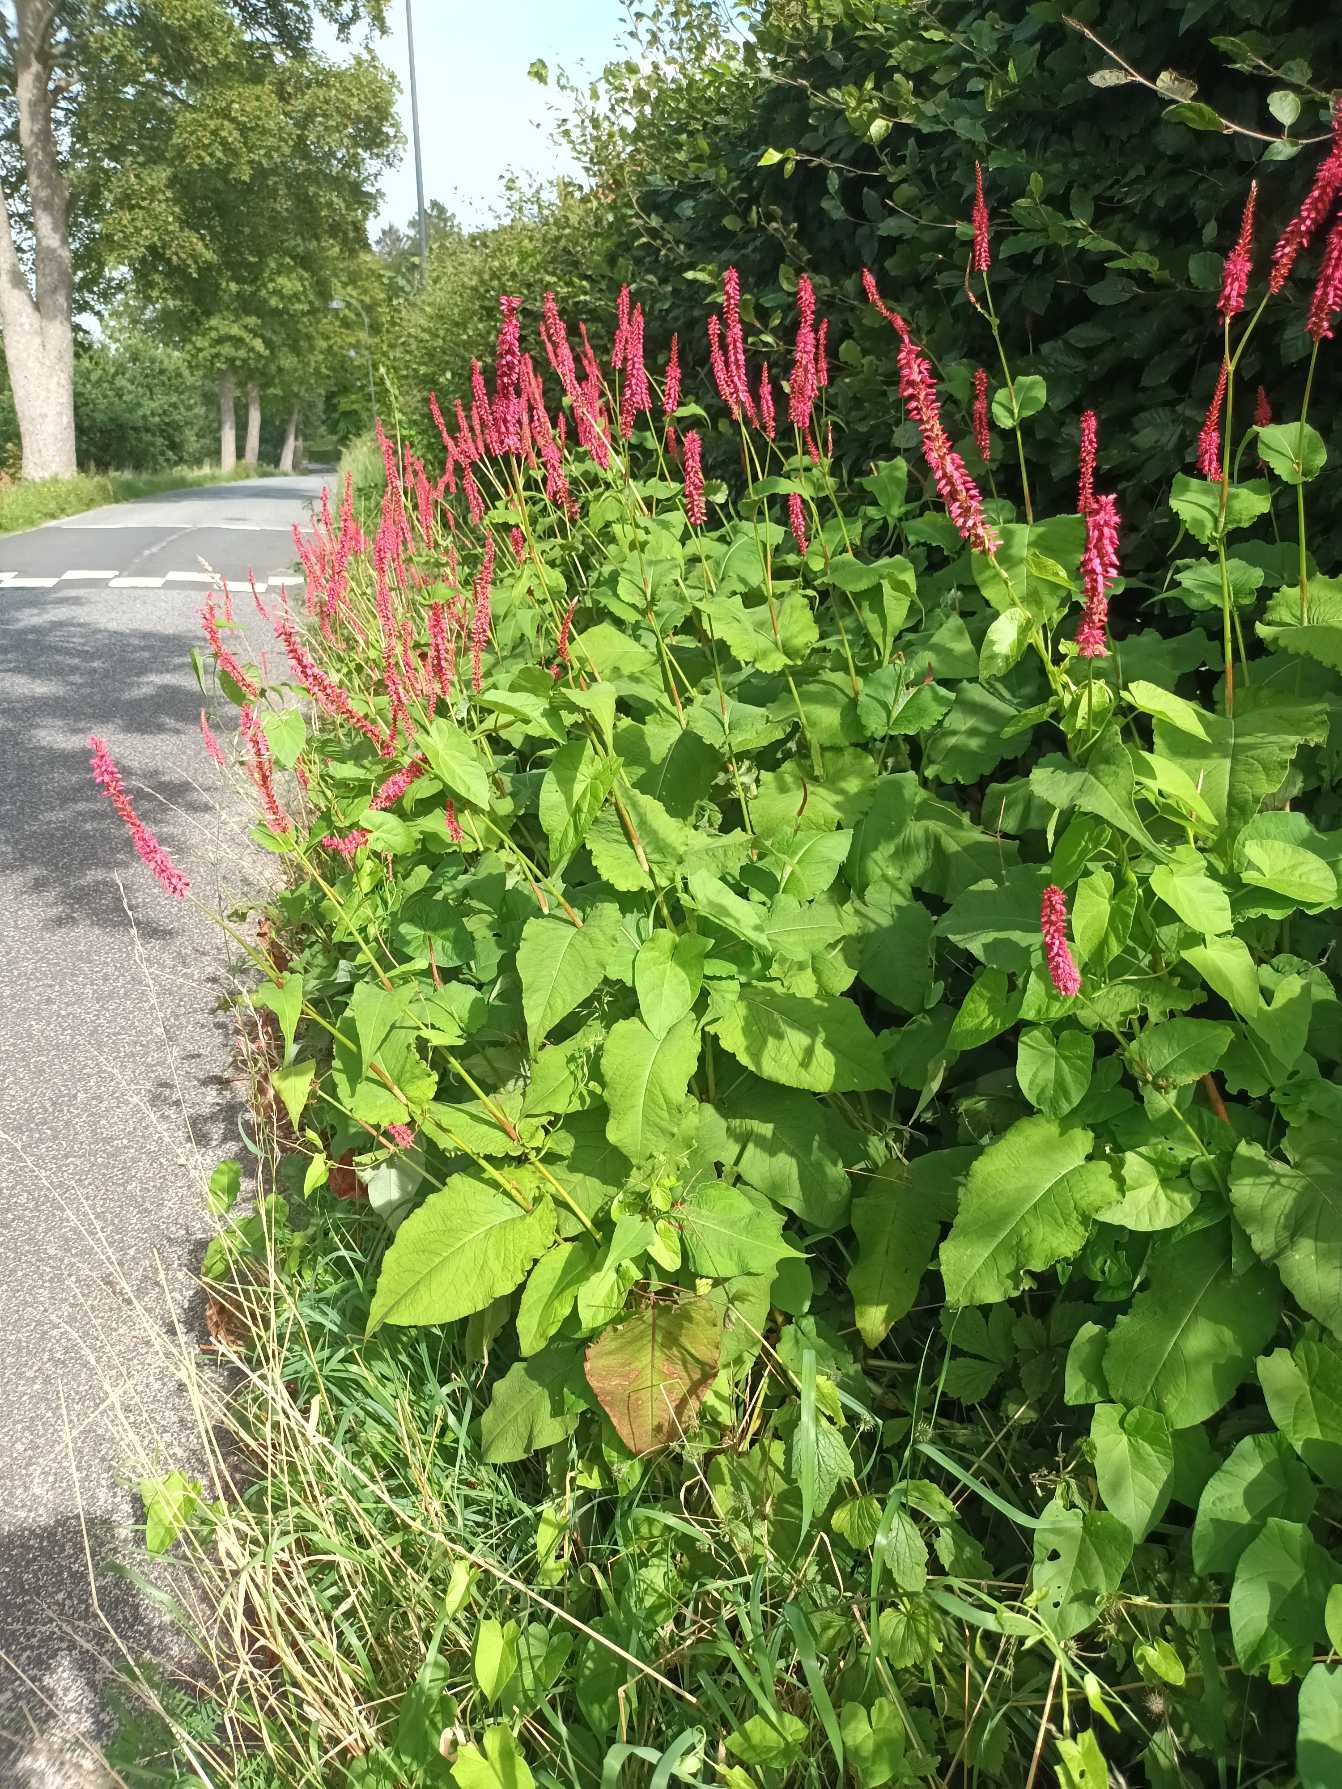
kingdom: Plantae
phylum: Tracheophyta
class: Magnoliopsida
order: Caryophyllales
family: Polygonaceae
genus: Bistorta
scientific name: Bistorta amplexicaulis
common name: Kærte-pileurt
